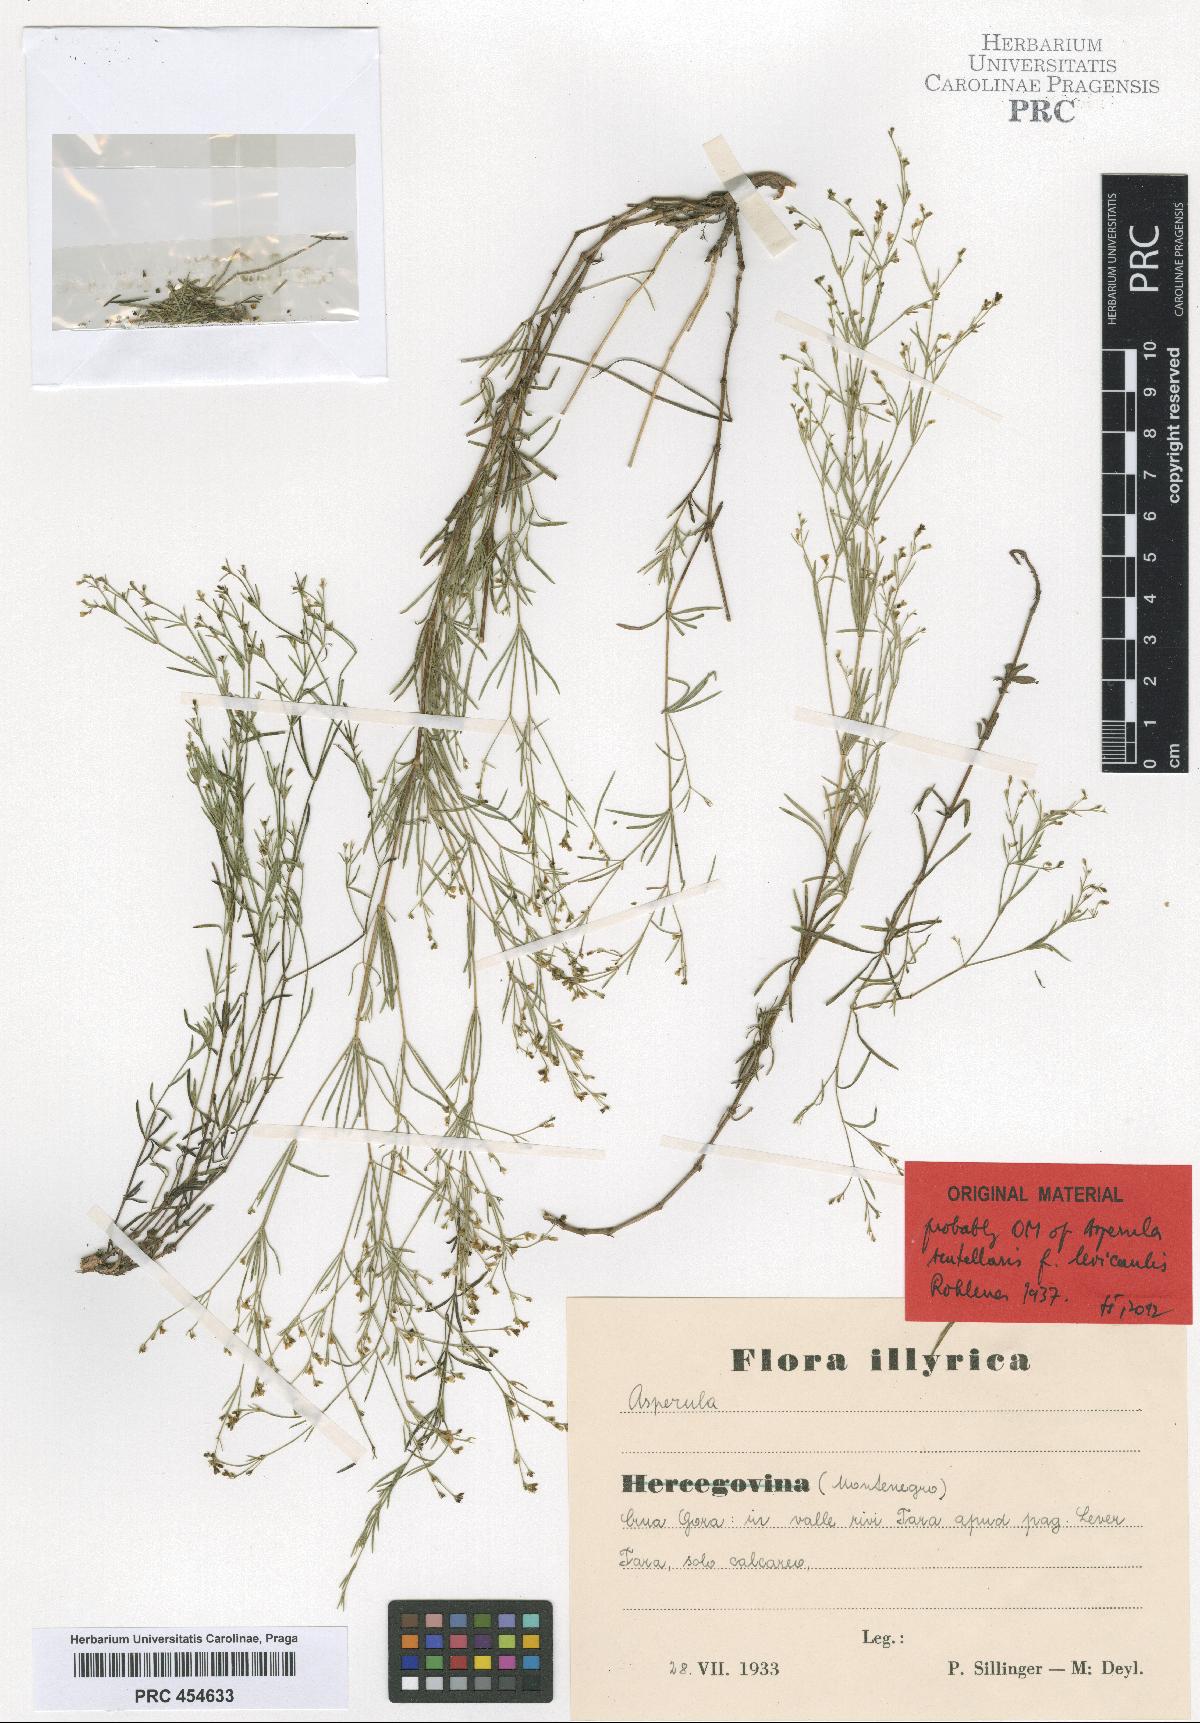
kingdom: Plantae
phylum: Tracheophyta
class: Magnoliopsida
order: Gentianales
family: Rubiaceae
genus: Thliphthisa
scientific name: Thliphthisa rupestris
